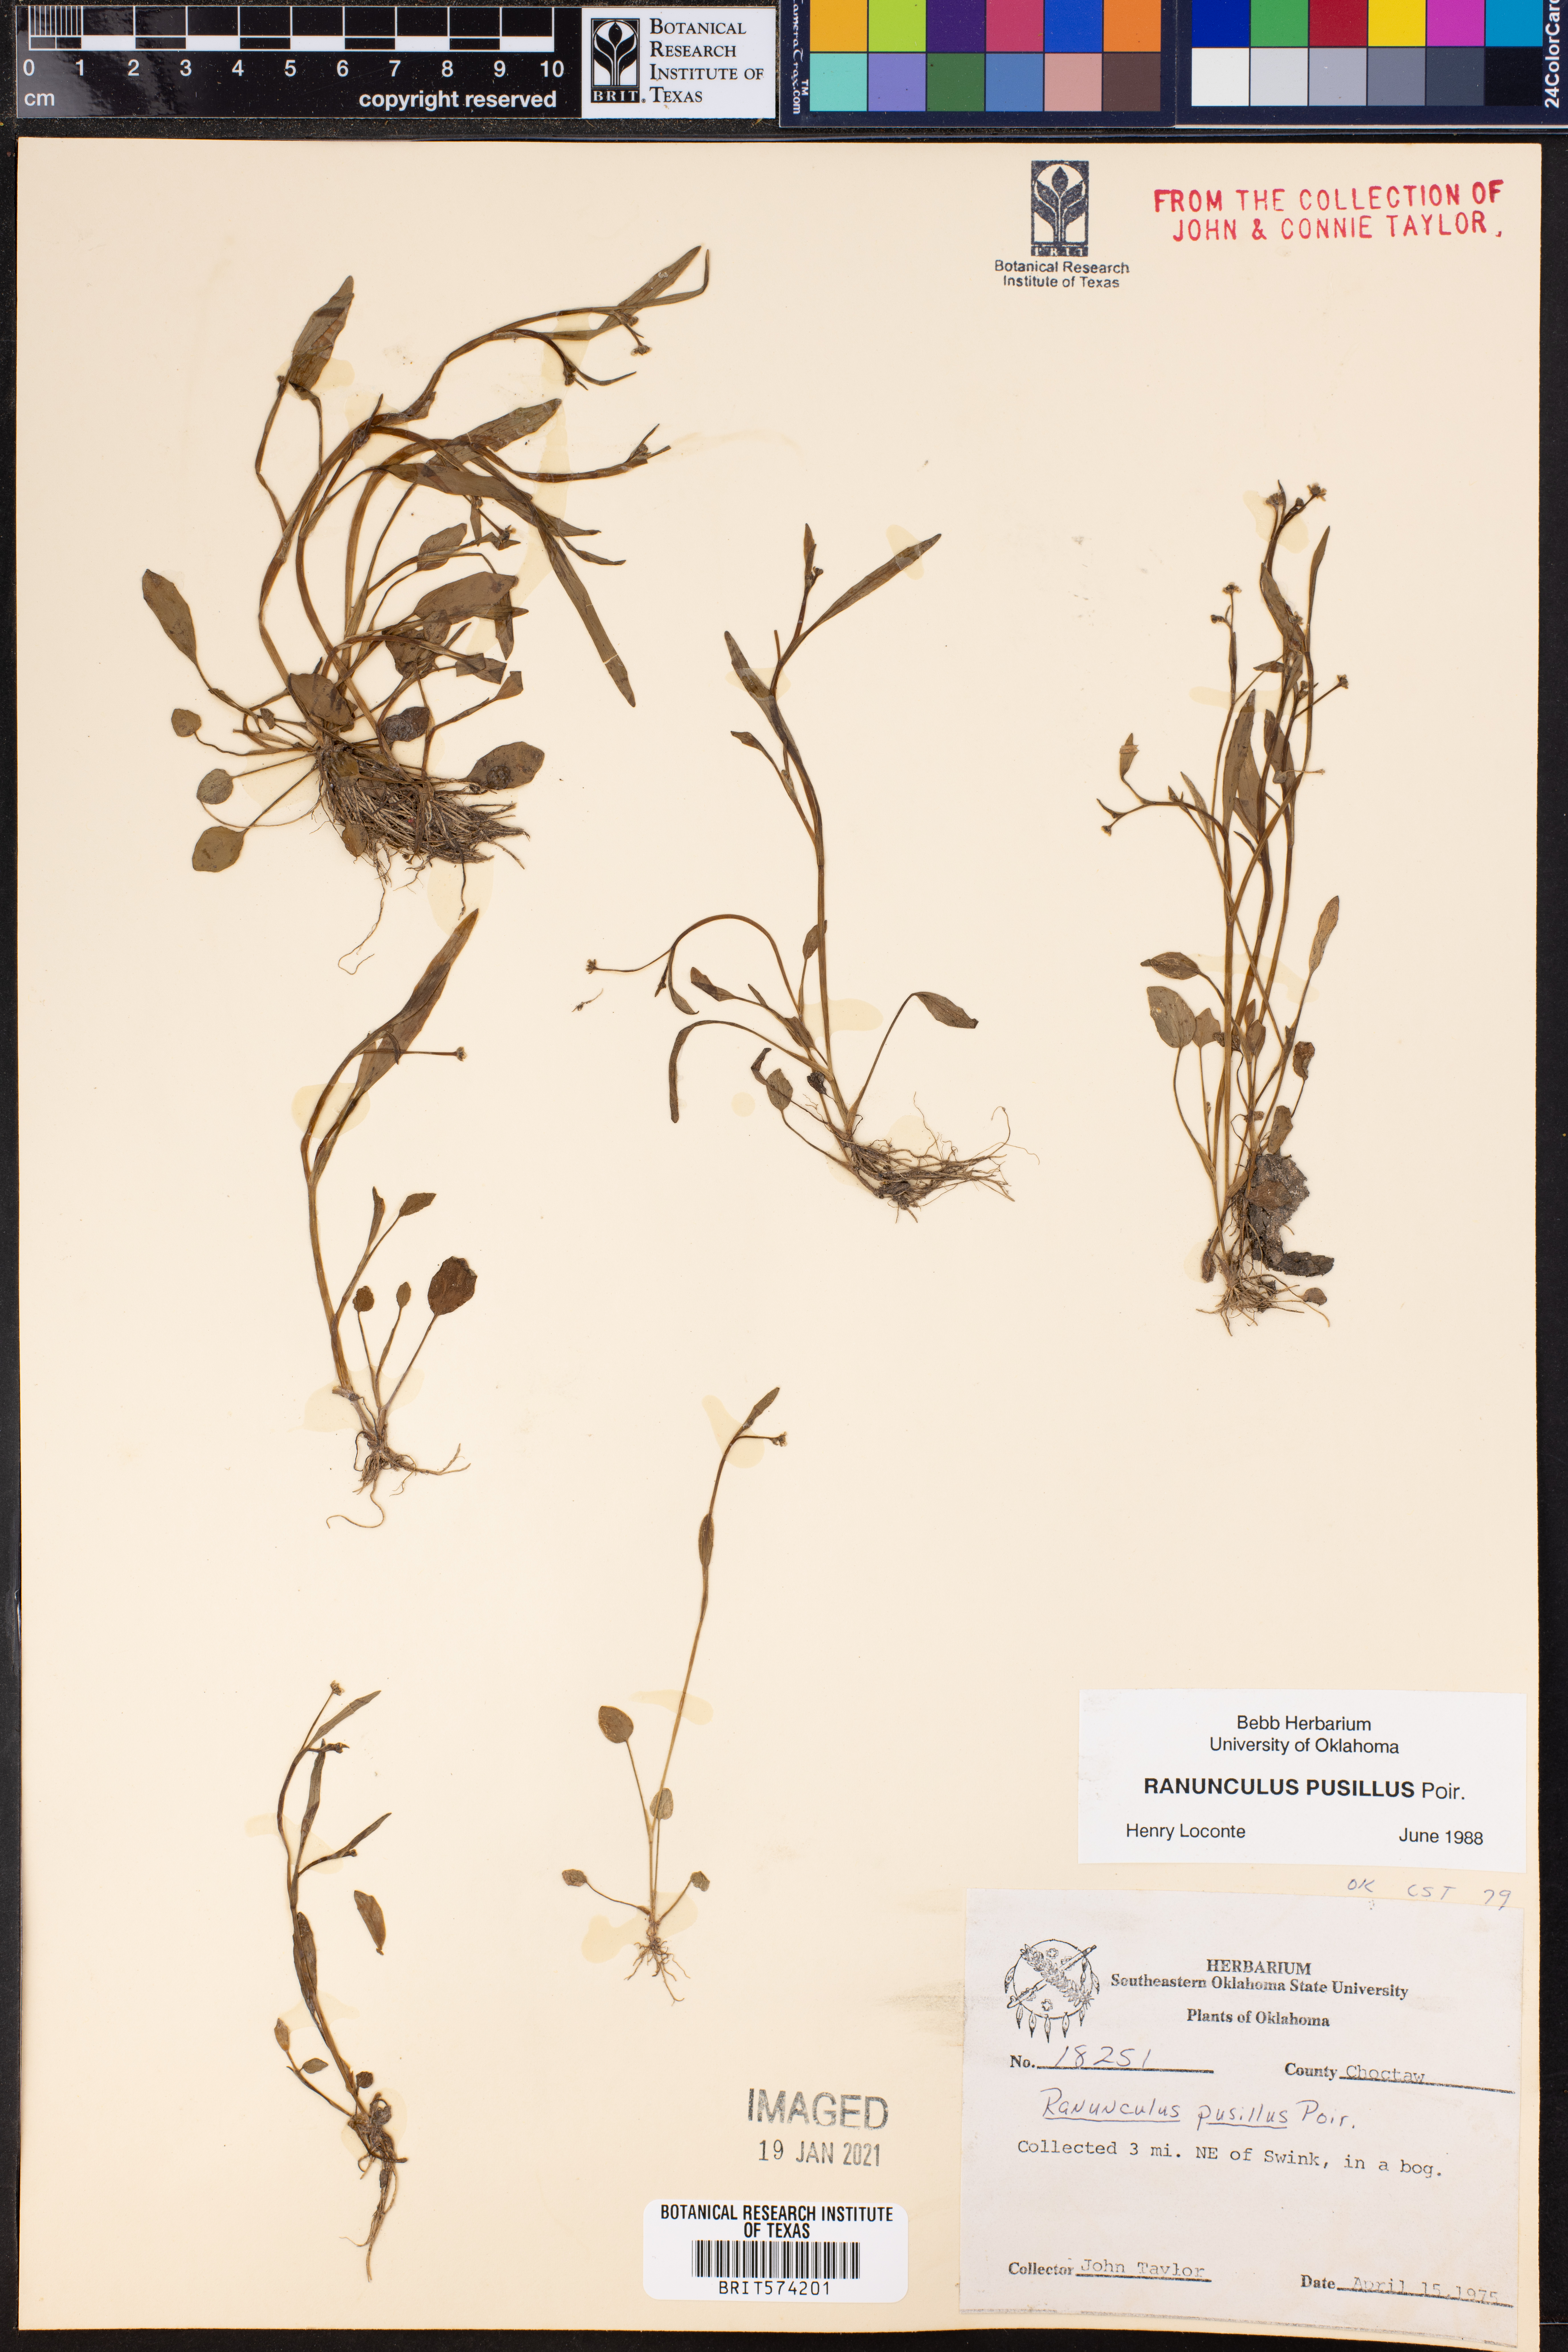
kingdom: Plantae
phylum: Tracheophyta
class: Magnoliopsida
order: Ranunculales
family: Ranunculaceae
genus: Ranunculus
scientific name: Ranunculus pusillus
